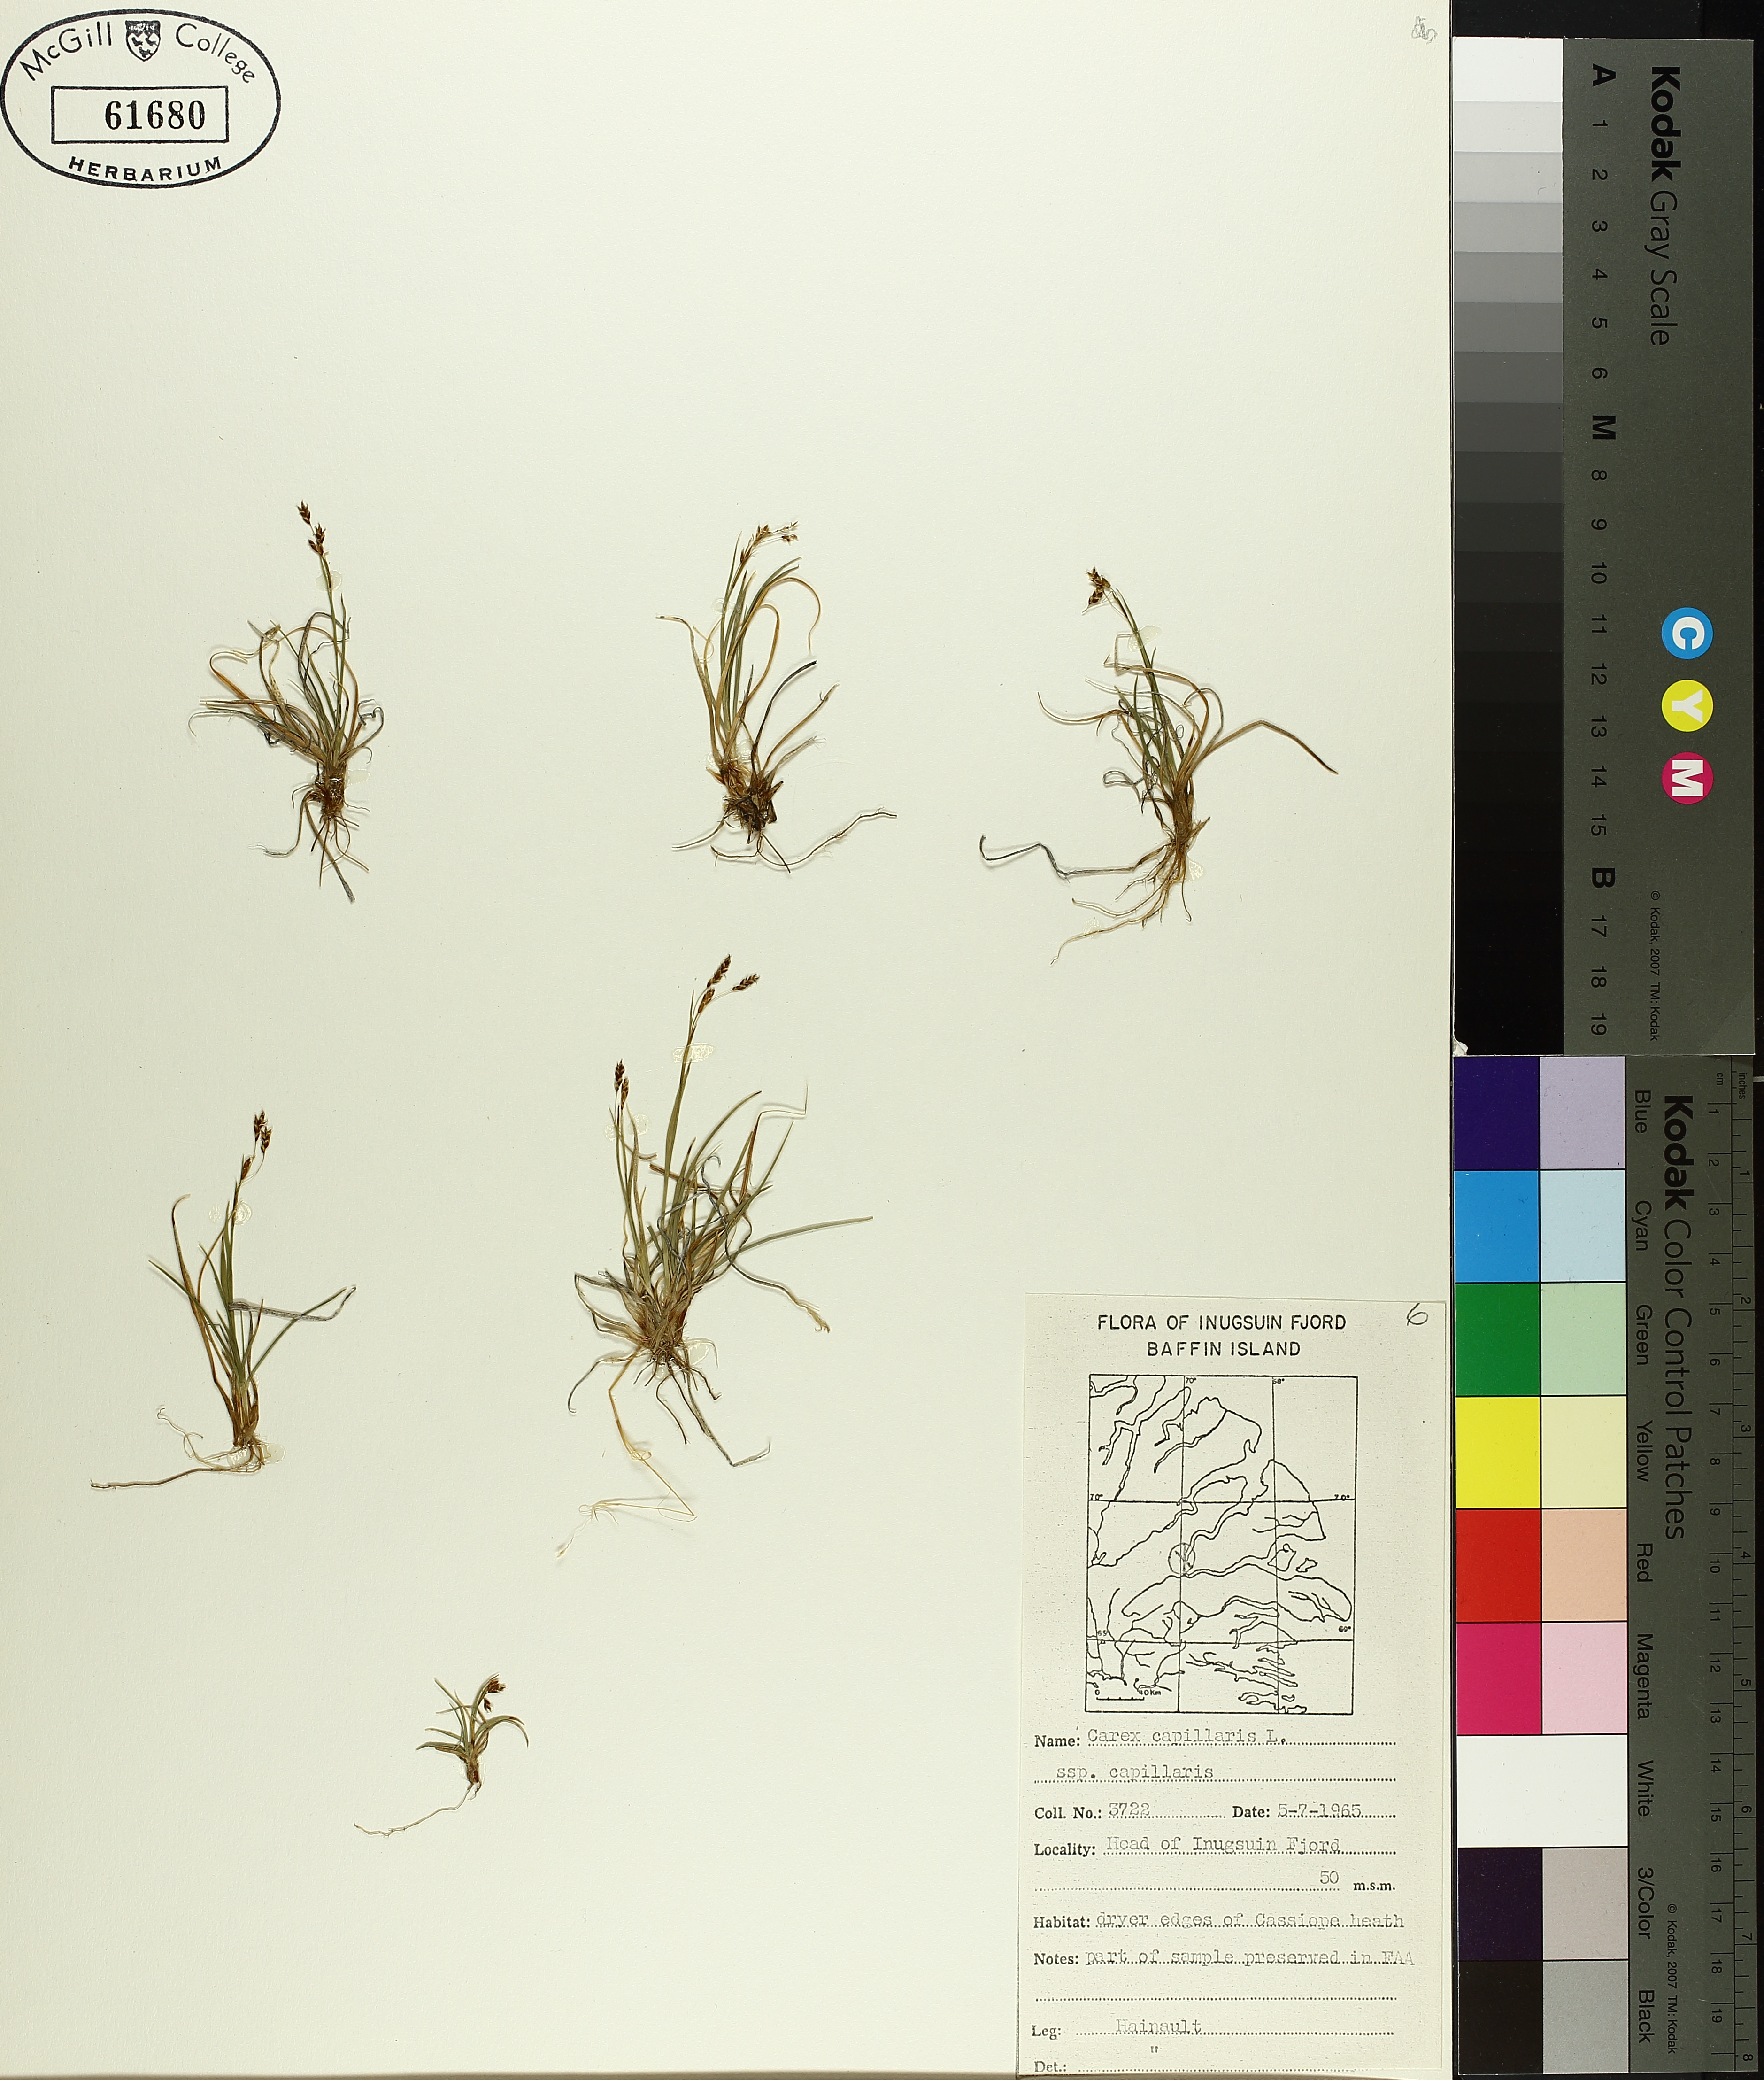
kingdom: Plantae
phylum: Tracheophyta
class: Liliopsida
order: Poales
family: Cyperaceae
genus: Carex
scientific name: Carex capillaris
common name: Hair sedge
